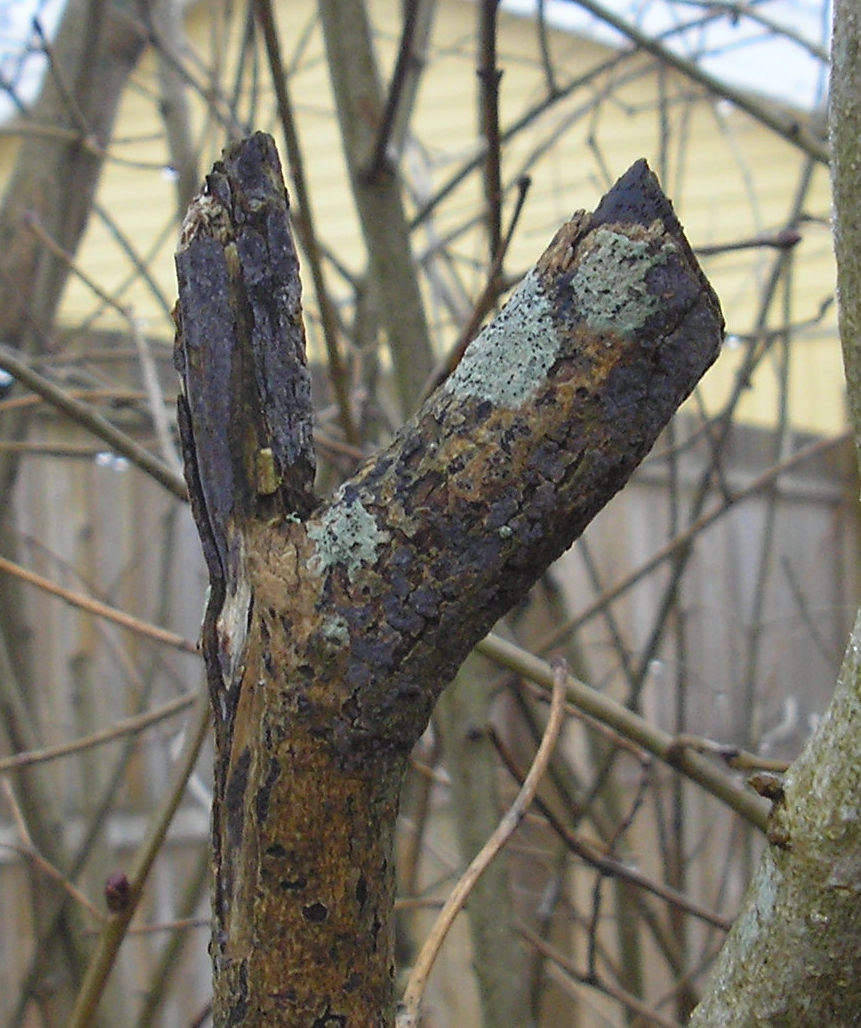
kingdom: Fungi
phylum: Basidiomycota
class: Agaricomycetes
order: Russulales
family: Peniophoraceae
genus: Peniophora
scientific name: Peniophora lycii
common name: grynet voksskind
